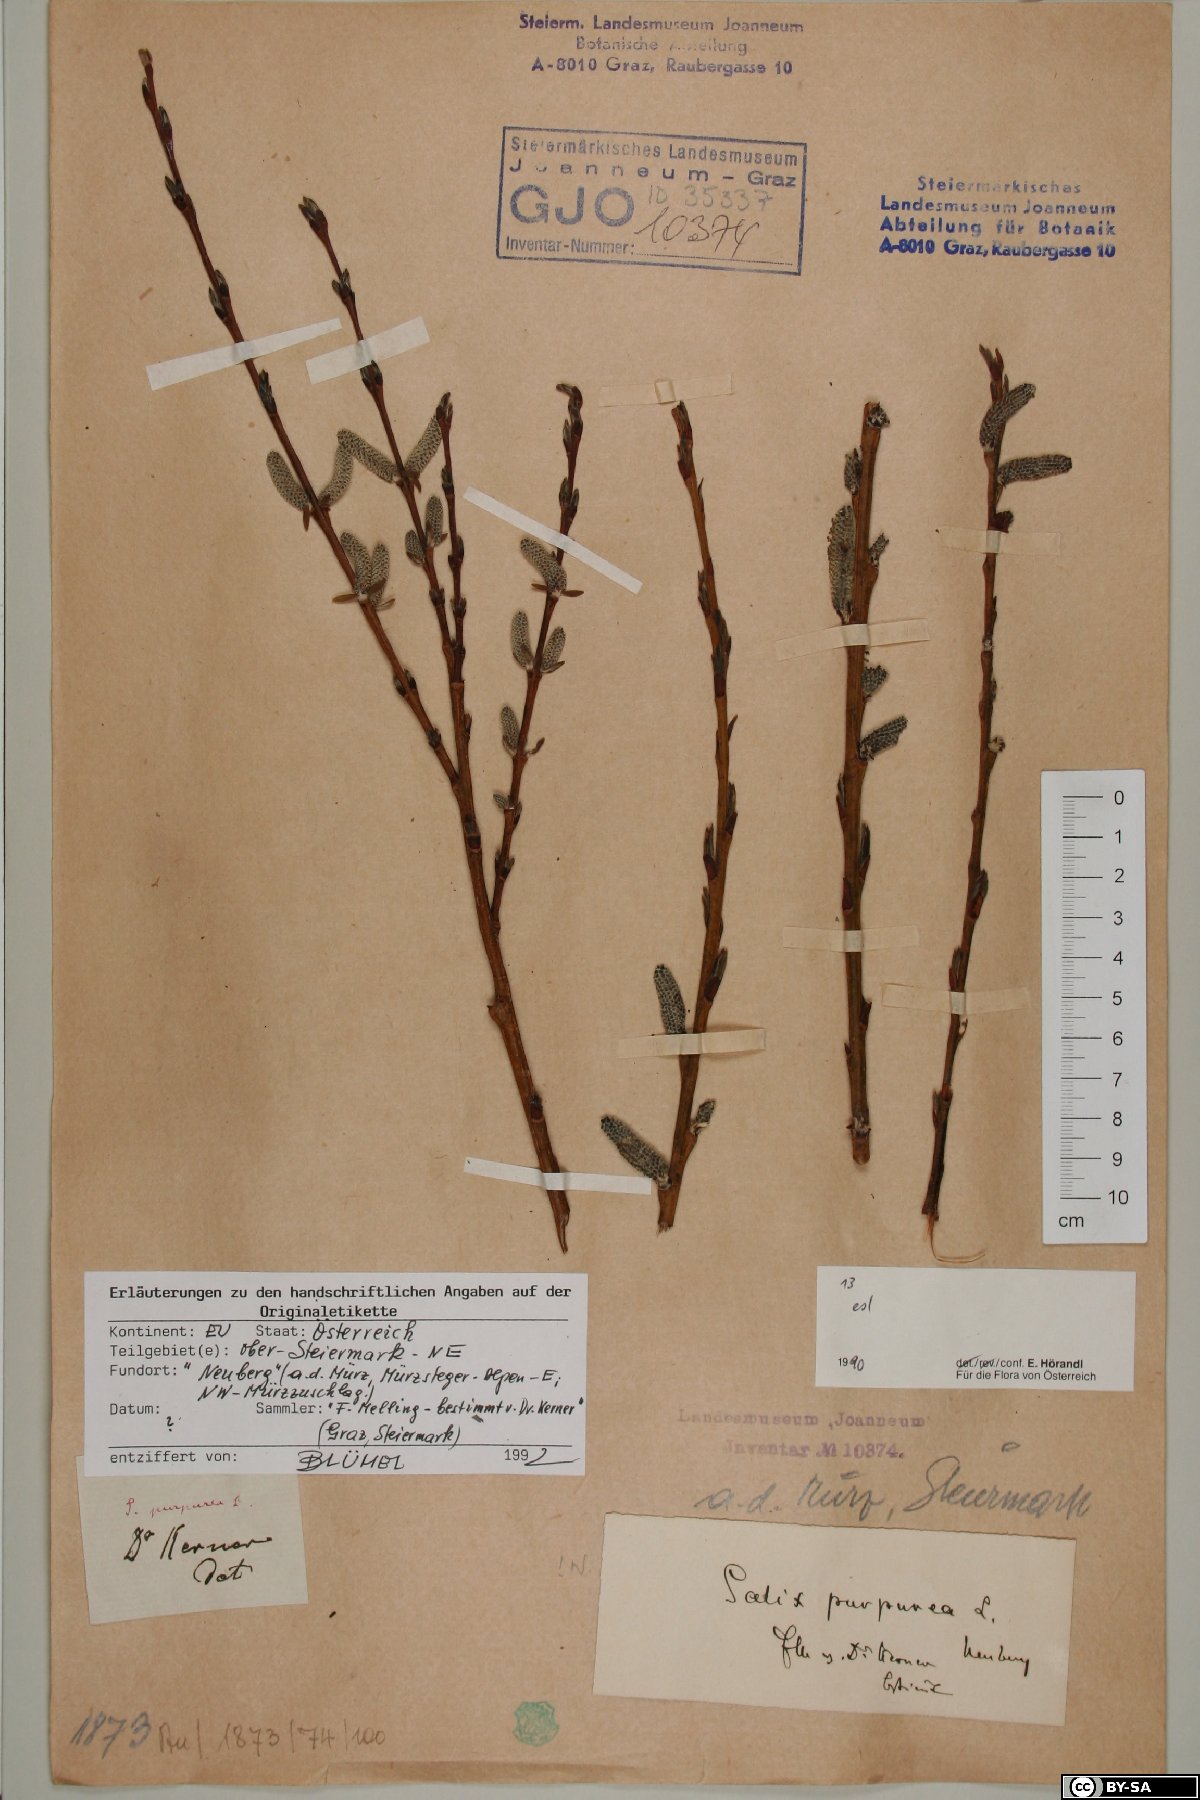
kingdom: Plantae
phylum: Tracheophyta
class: Magnoliopsida
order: Malpighiales
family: Salicaceae
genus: Salix
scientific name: Salix purpurea
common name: Purple willow
